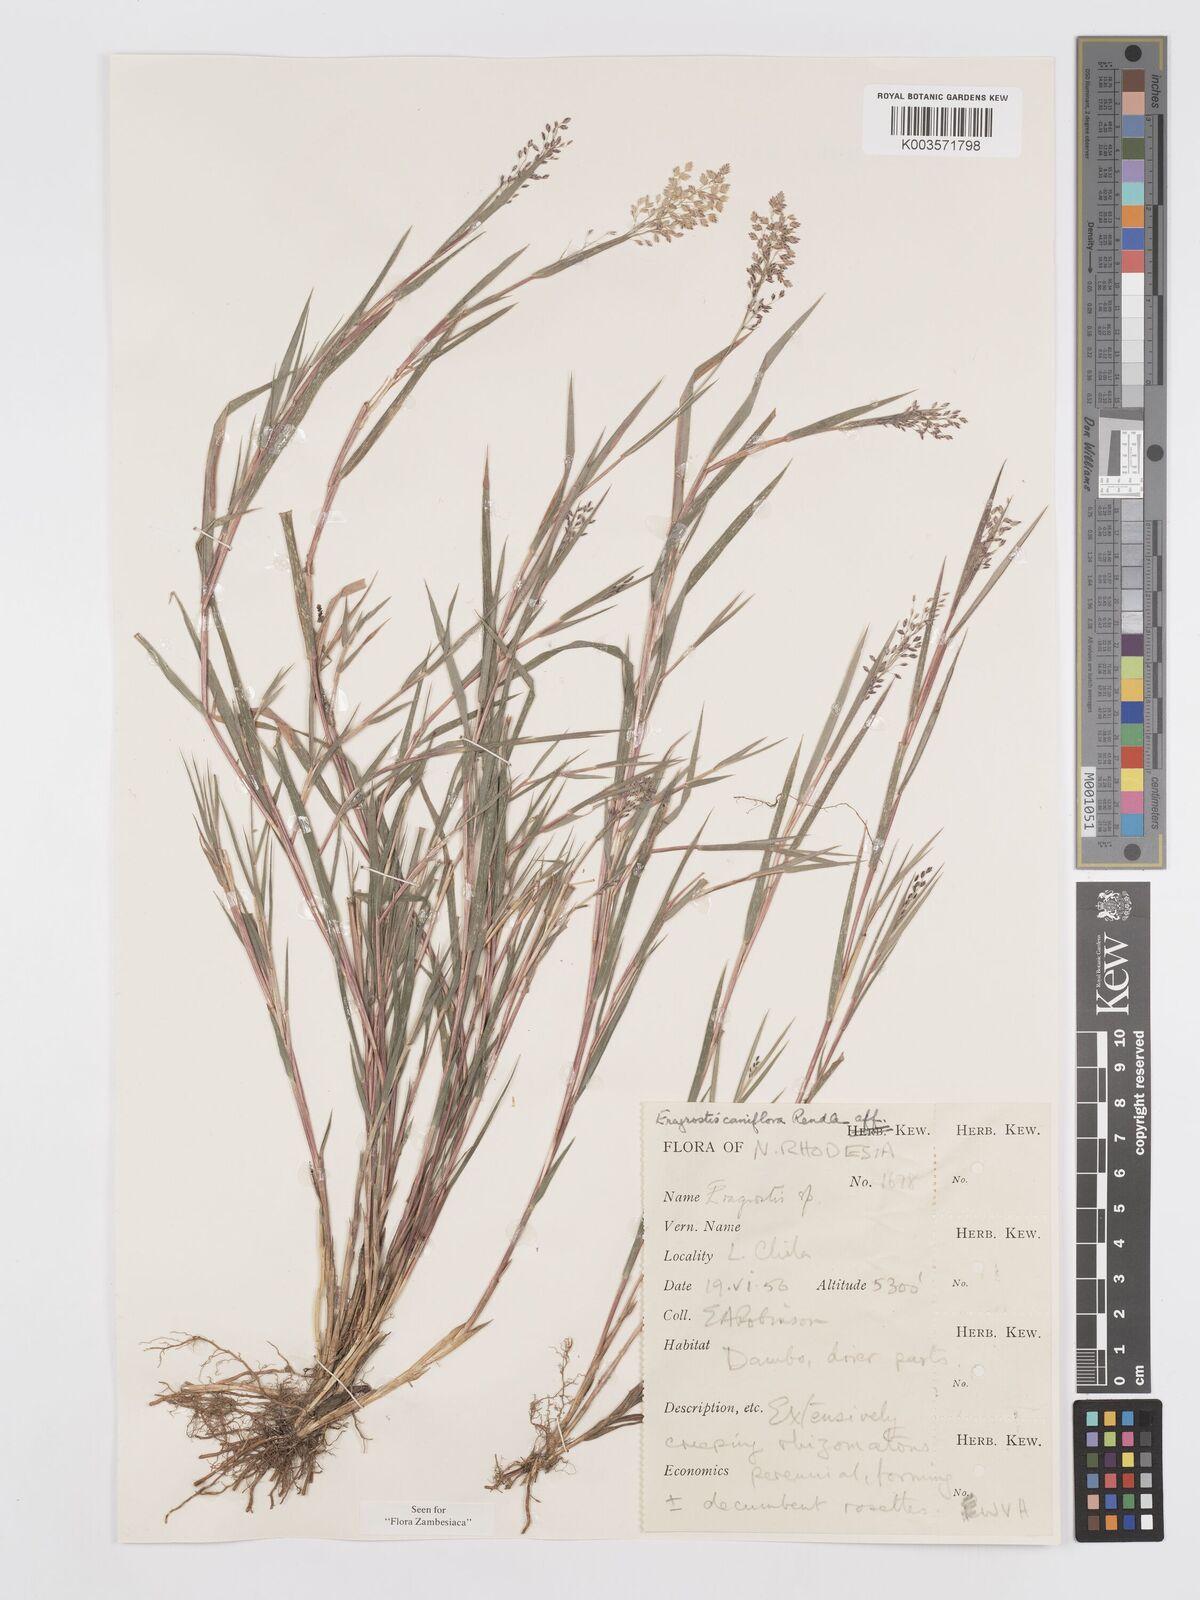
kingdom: Plantae
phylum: Tracheophyta
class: Liliopsida
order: Poales
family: Poaceae
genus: Eragrostis
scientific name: Eragrostis caniflora
